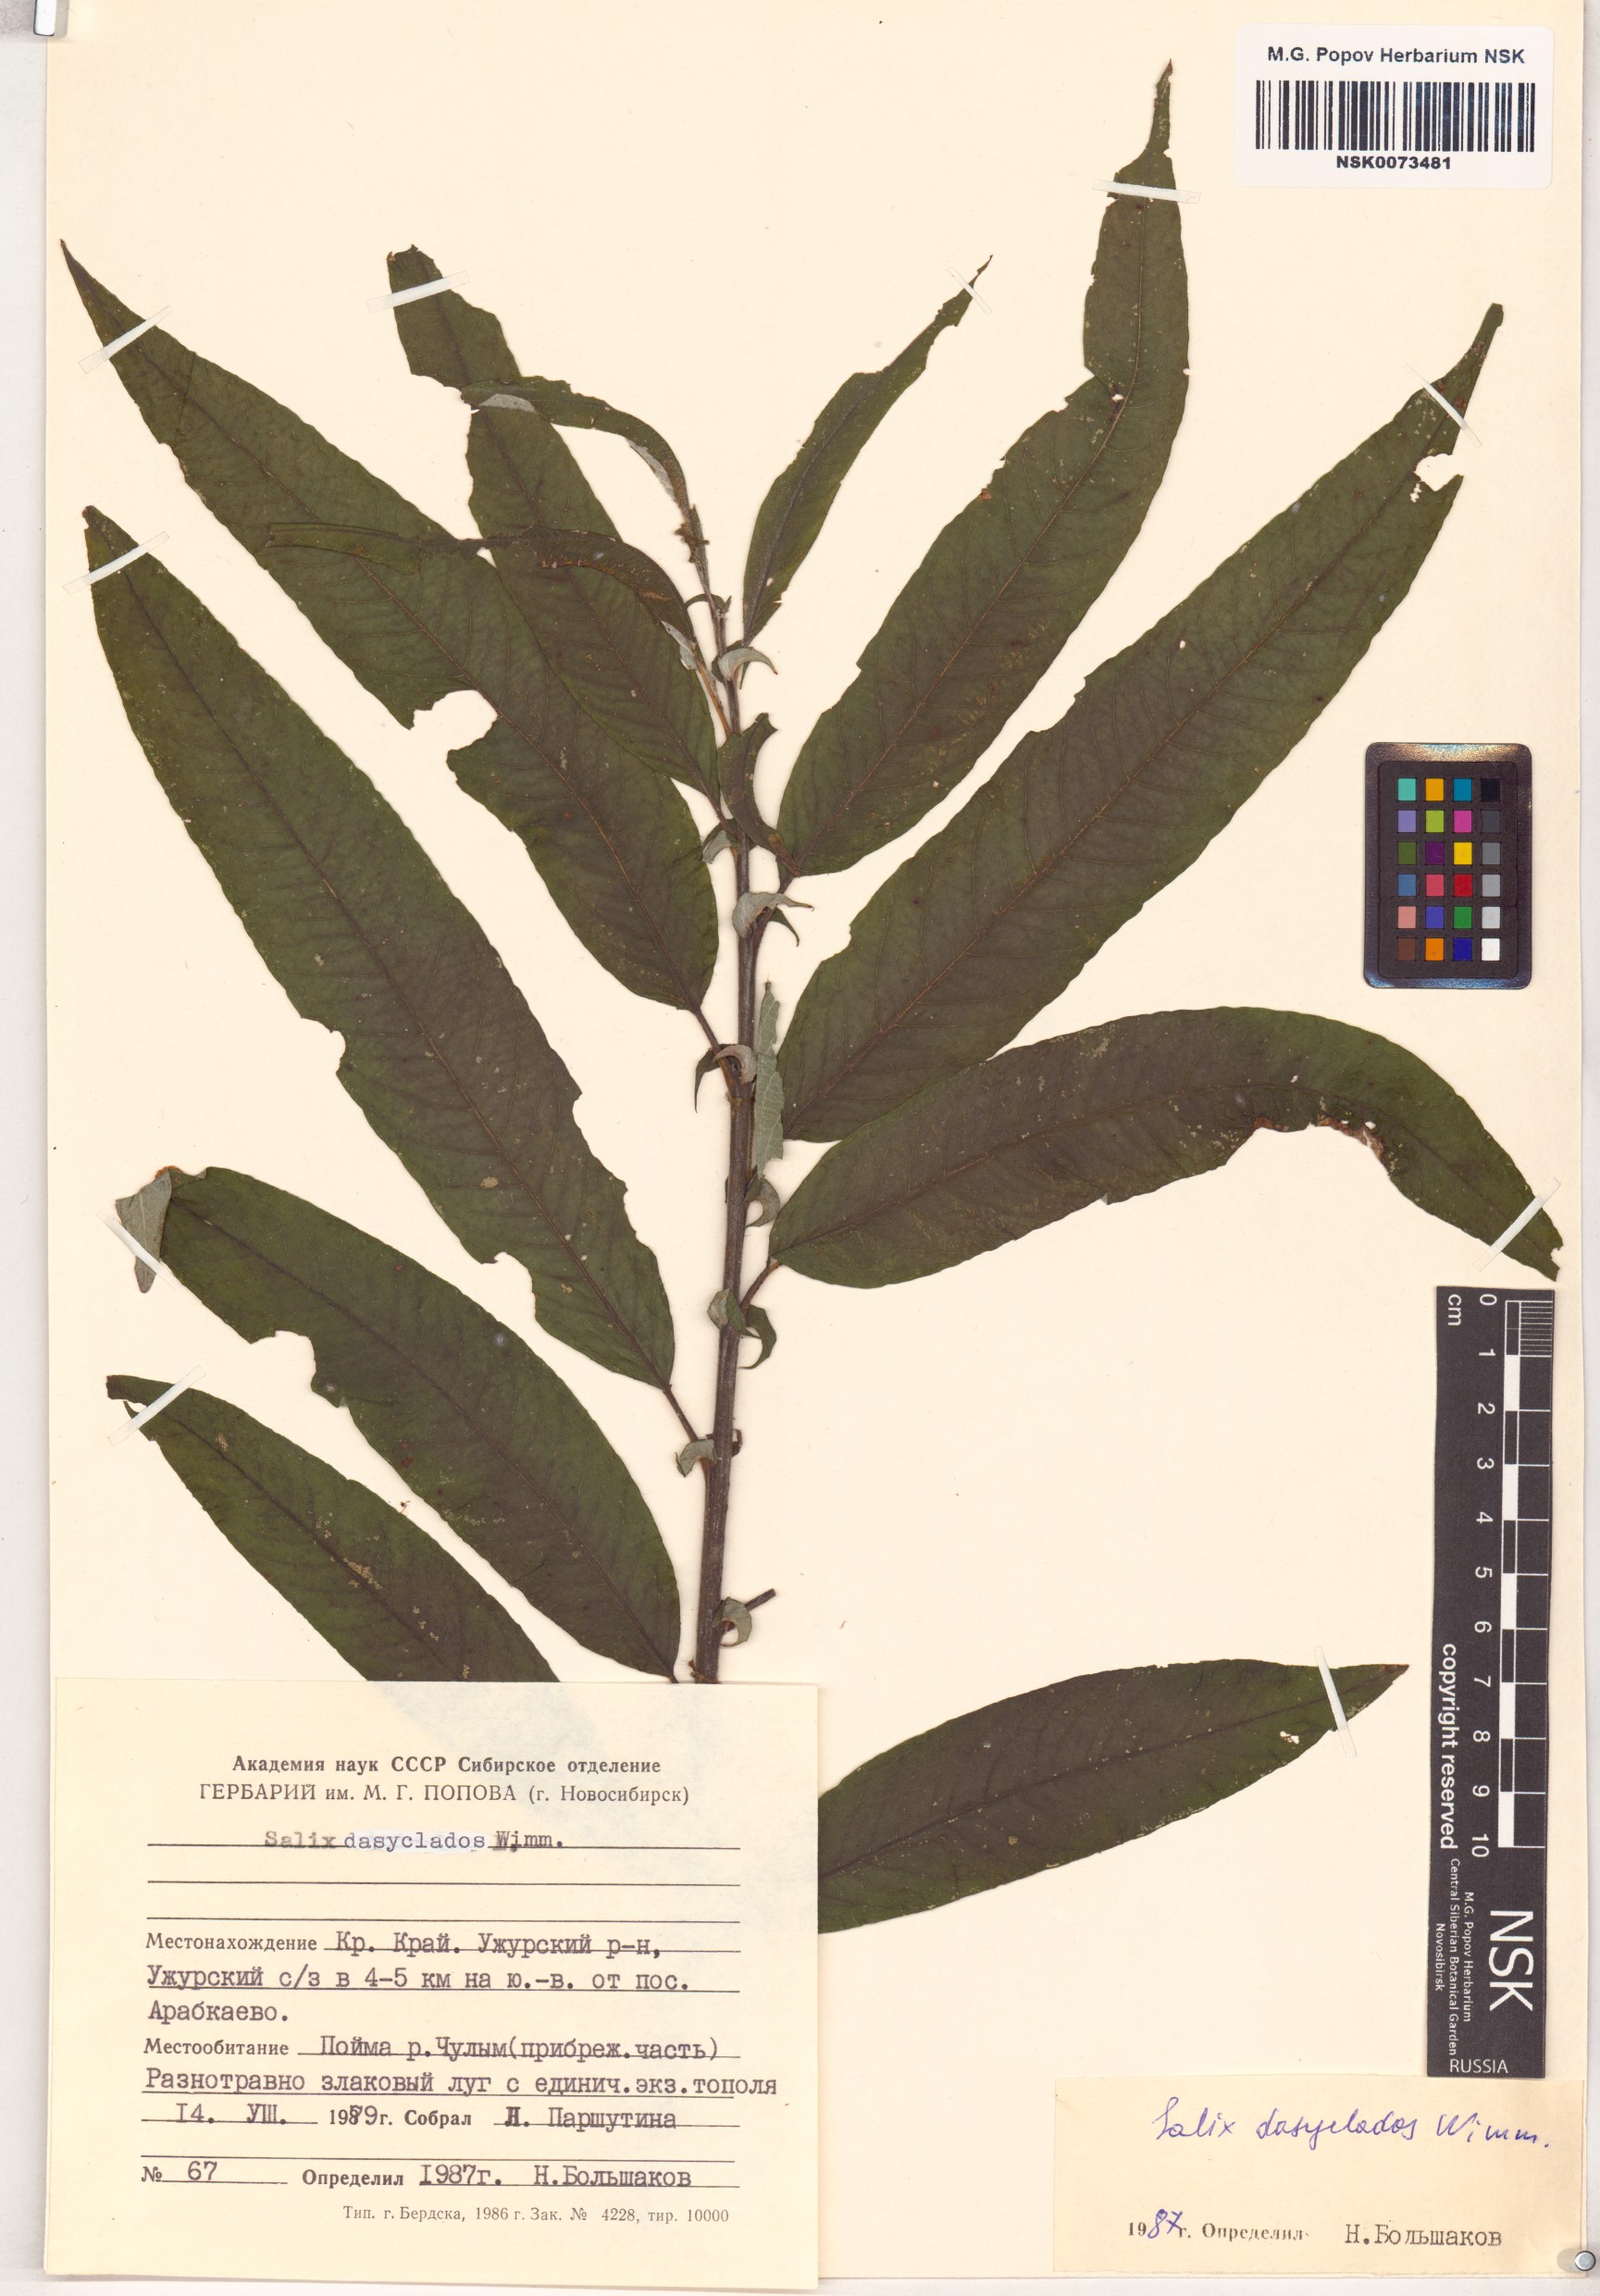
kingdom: Plantae
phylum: Tracheophyta
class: Magnoliopsida
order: Malpighiales
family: Salicaceae
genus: Salix
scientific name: Salix gmelinii
